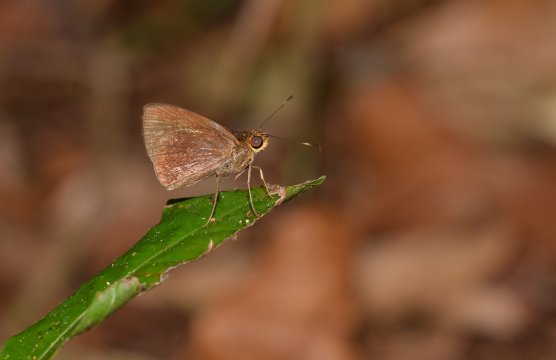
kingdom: Animalia
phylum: Arthropoda
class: Insecta
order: Lepidoptera
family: Hesperiidae
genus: Thargella
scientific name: Thargella caura
